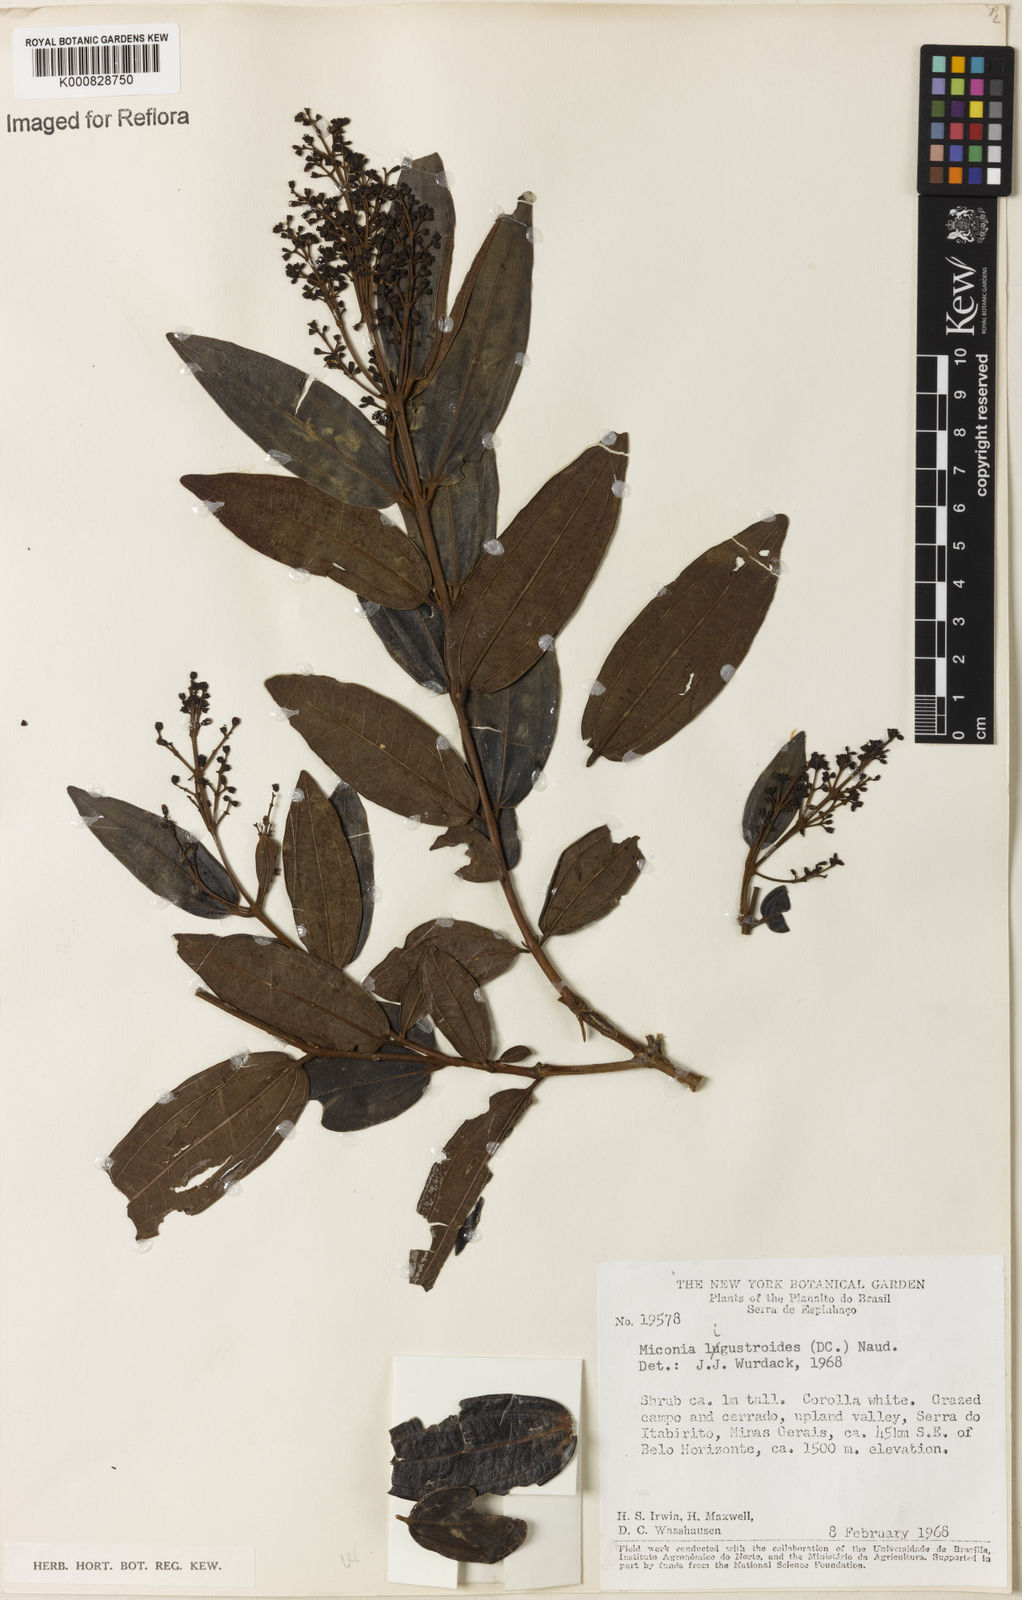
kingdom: Plantae
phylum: Tracheophyta
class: Magnoliopsida
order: Myrtales
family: Melastomataceae
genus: Miconia
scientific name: Miconia ligustroides
